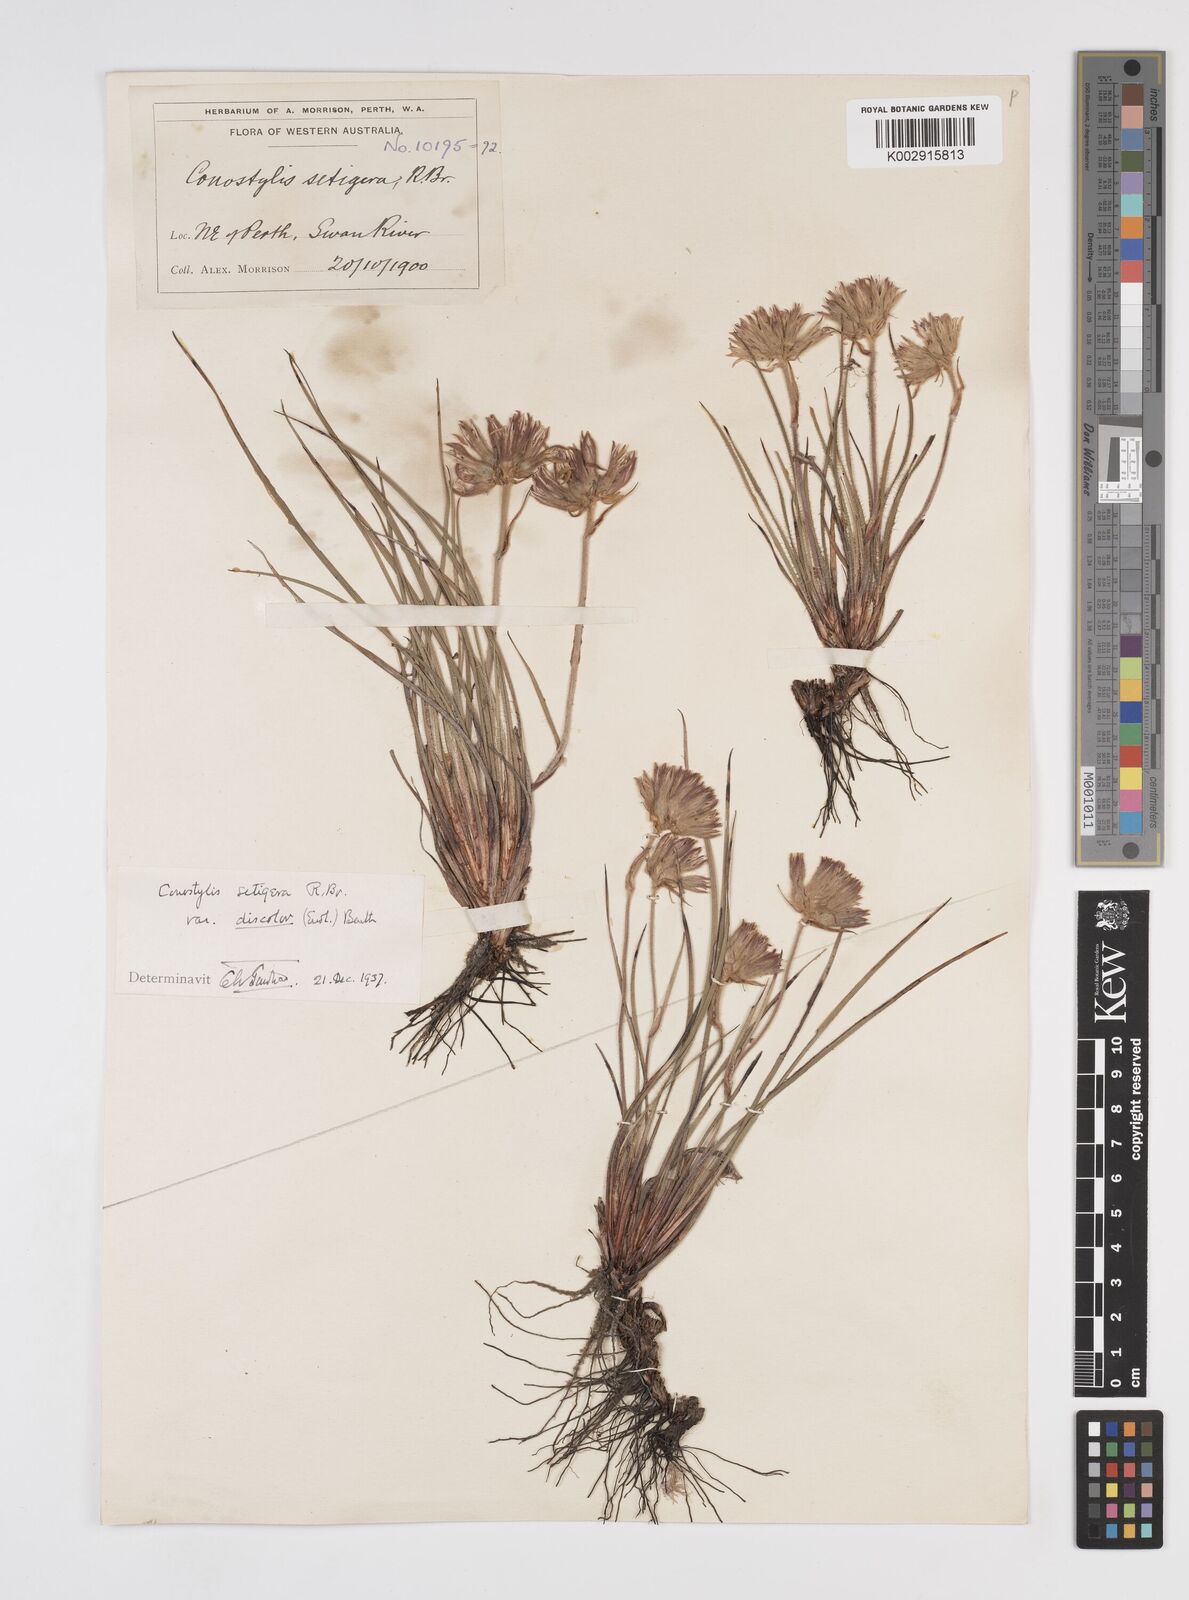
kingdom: Plantae
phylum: Tracheophyta
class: Liliopsida
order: Commelinales
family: Haemodoraceae
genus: Conostylis
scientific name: Conostylis setigera
